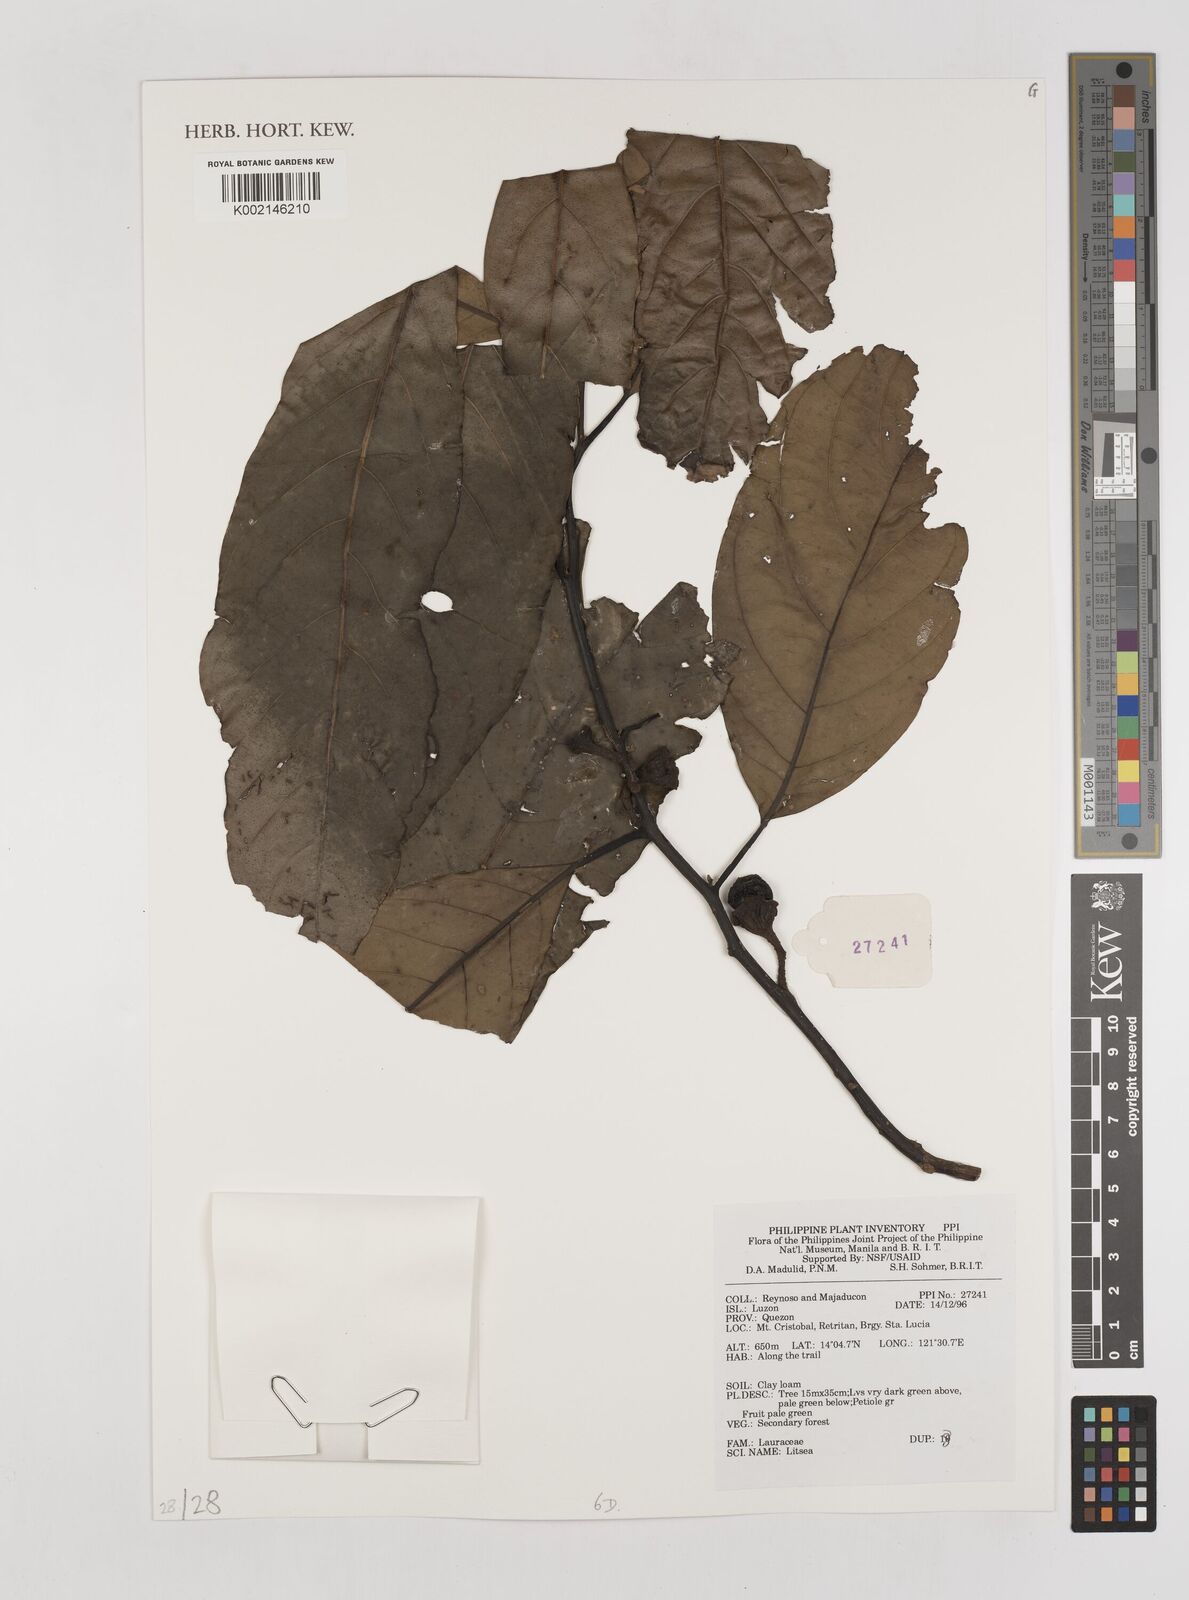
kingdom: Plantae
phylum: Tracheophyta
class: Magnoliopsida
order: Laurales
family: Lauraceae
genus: Litsea
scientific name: Litsea
